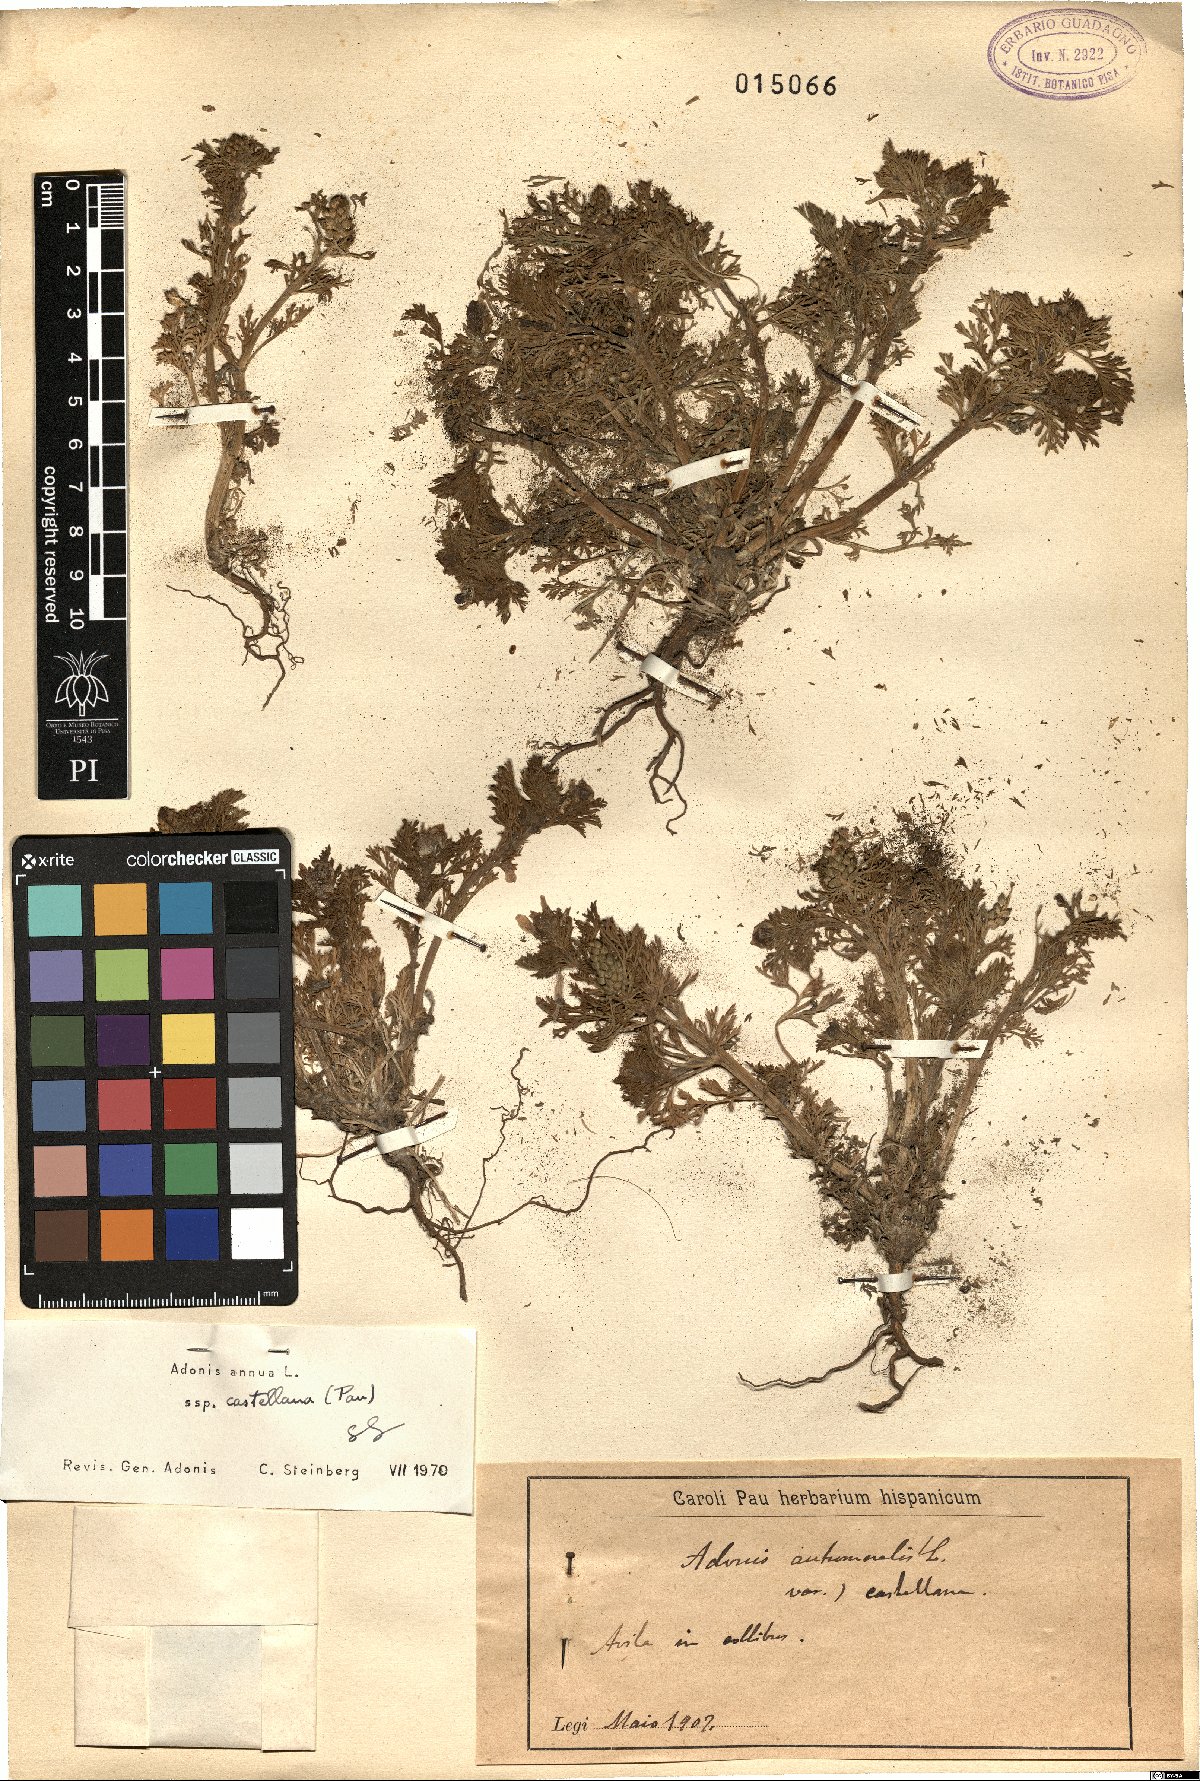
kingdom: Plantae
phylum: Tracheophyta
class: Magnoliopsida
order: Ranunculales
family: Ranunculaceae
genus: Adonis
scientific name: Adonis annua
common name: Pheasant's-eye
